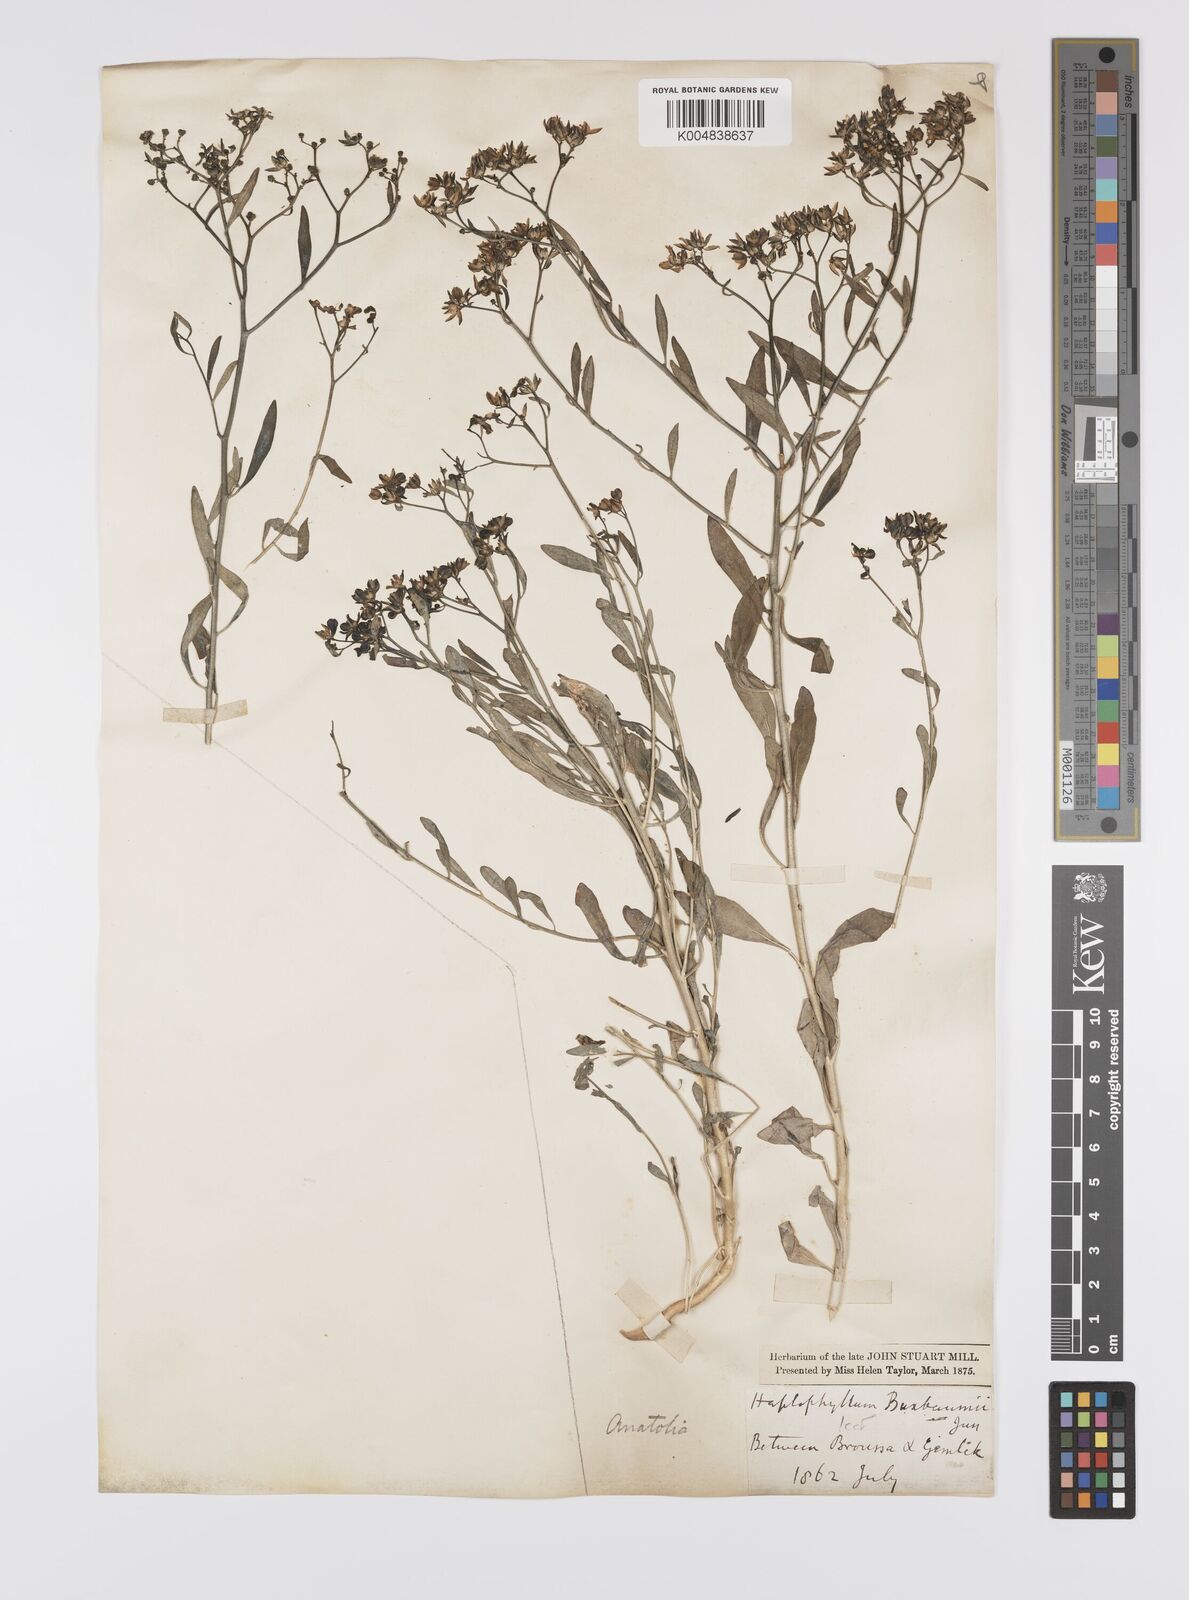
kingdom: Plantae
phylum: Tracheophyta
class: Magnoliopsida
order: Sapindales
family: Rutaceae
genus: Haplophyllum
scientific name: Haplophyllum
